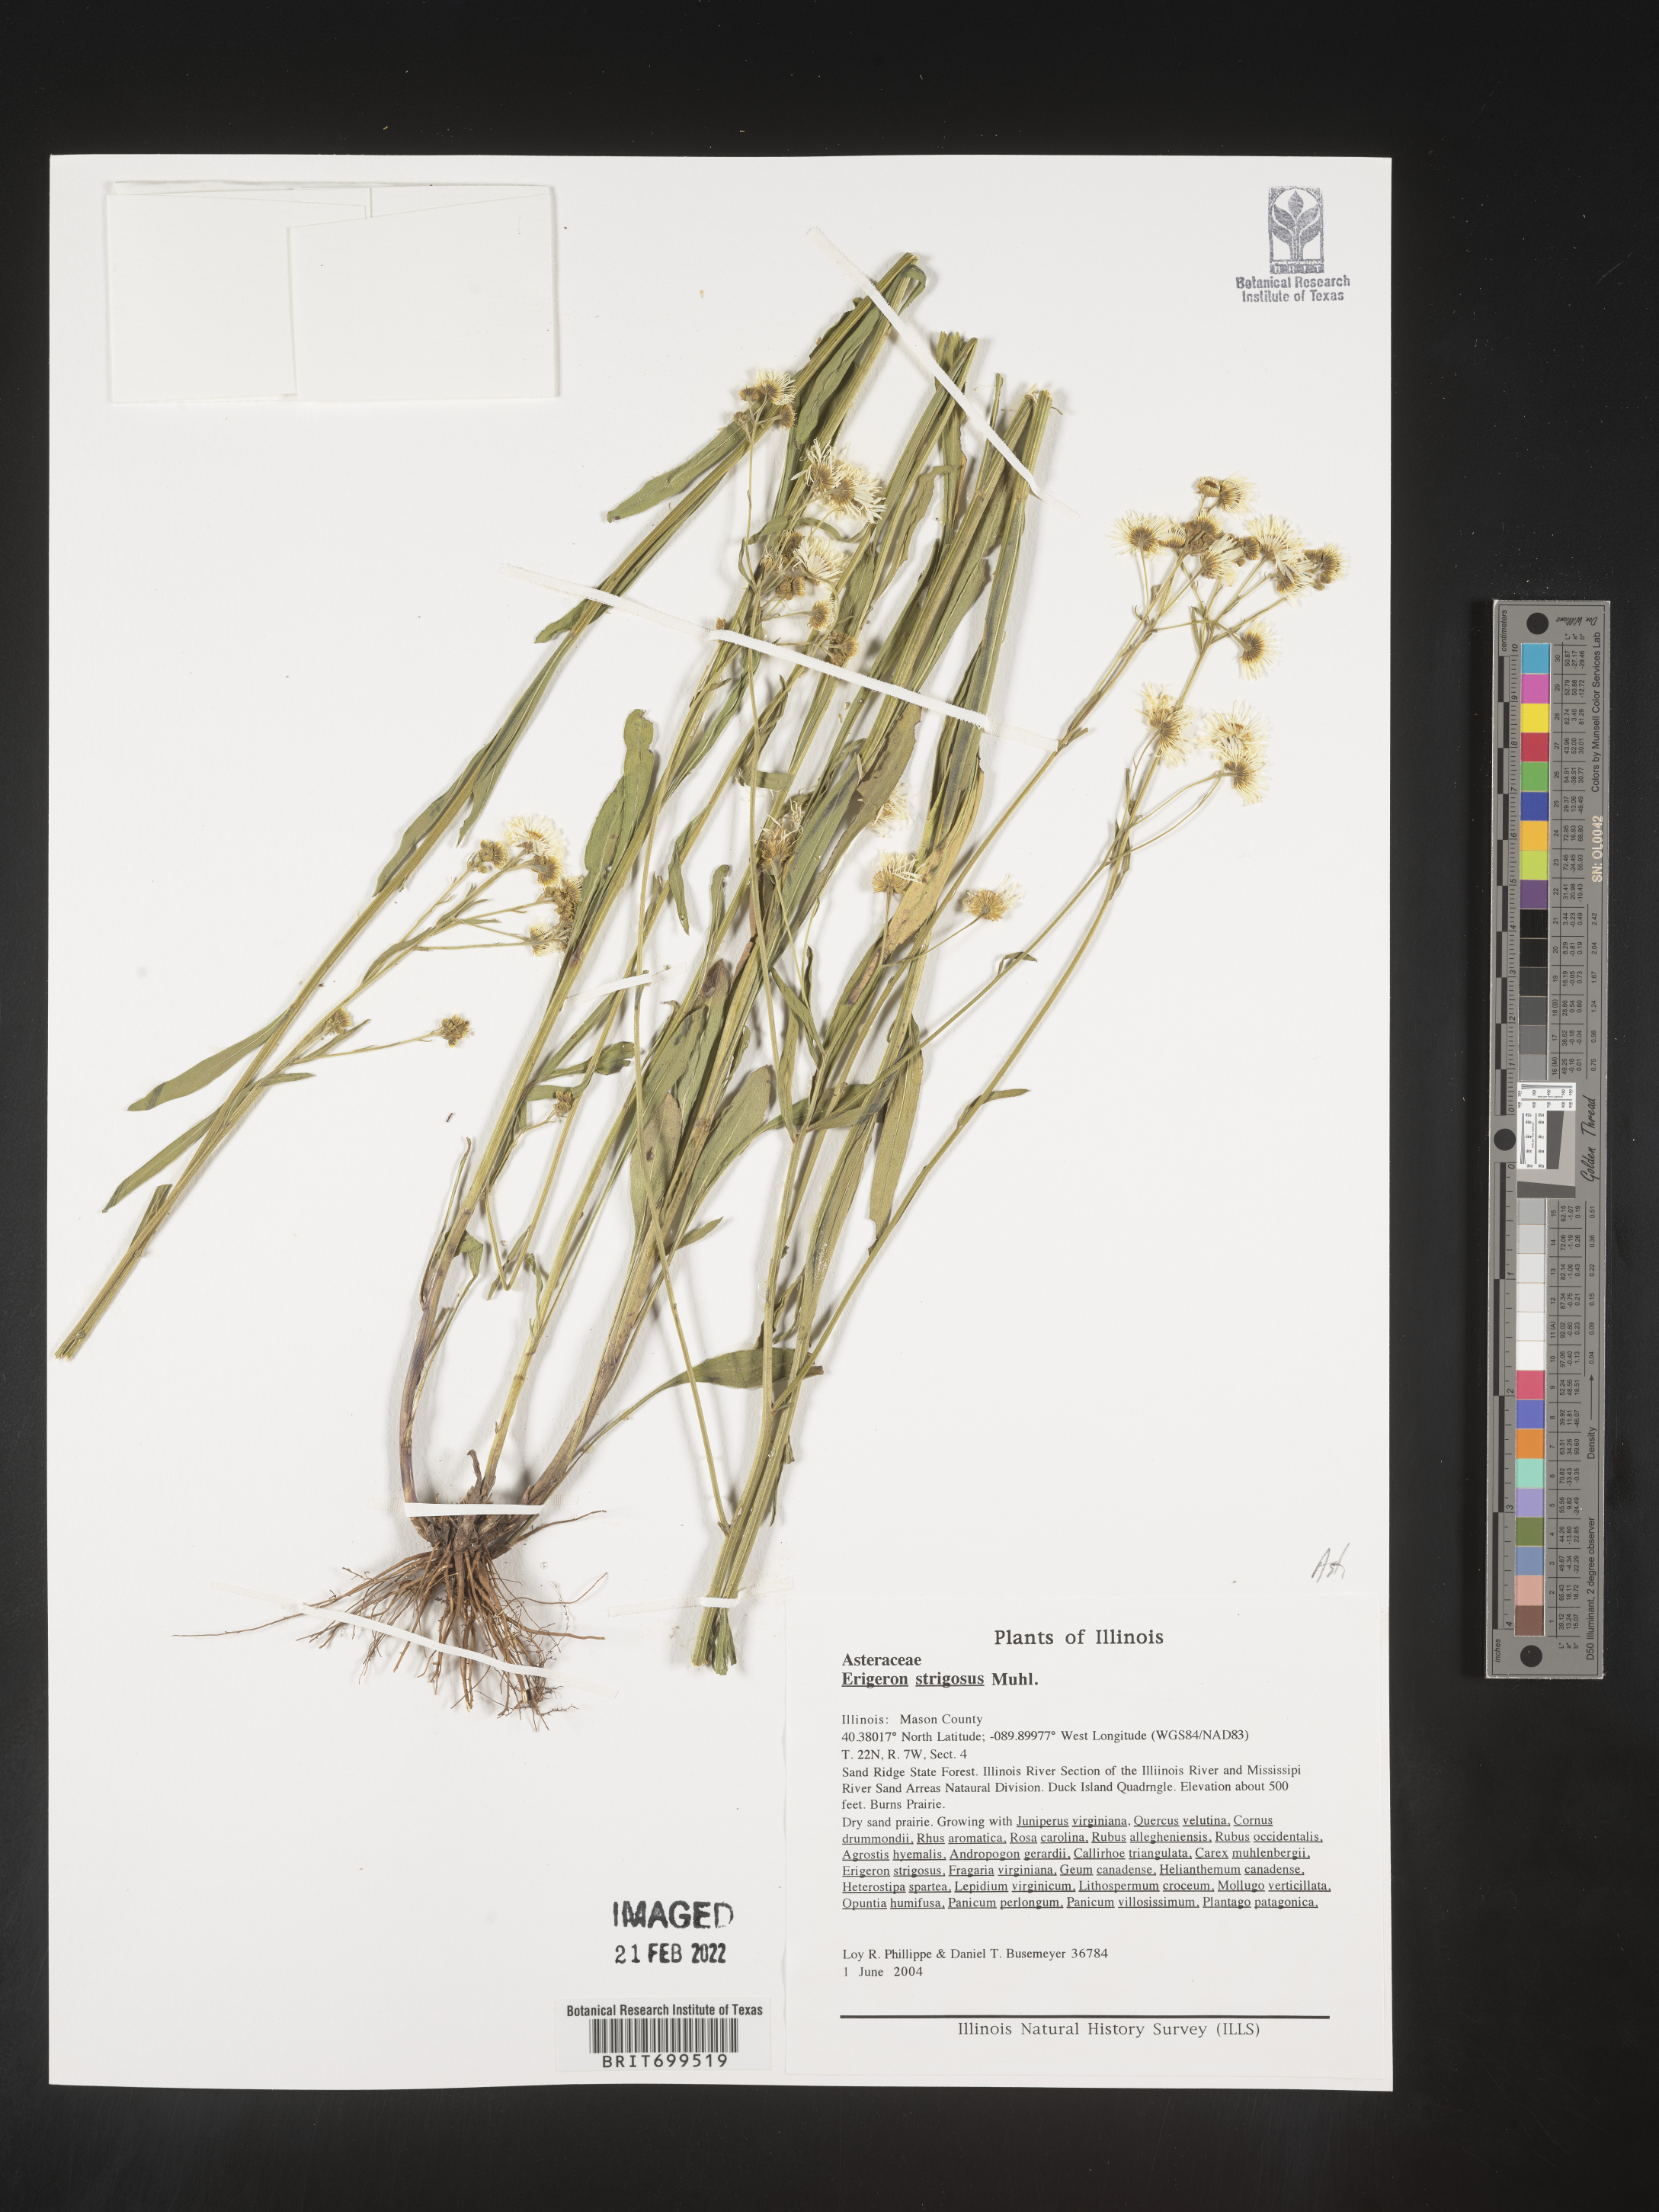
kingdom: Plantae
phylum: Tracheophyta
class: Magnoliopsida
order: Asterales
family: Asteraceae
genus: Erigeron
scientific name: Erigeron strigosus
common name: Common eastern fleabane
